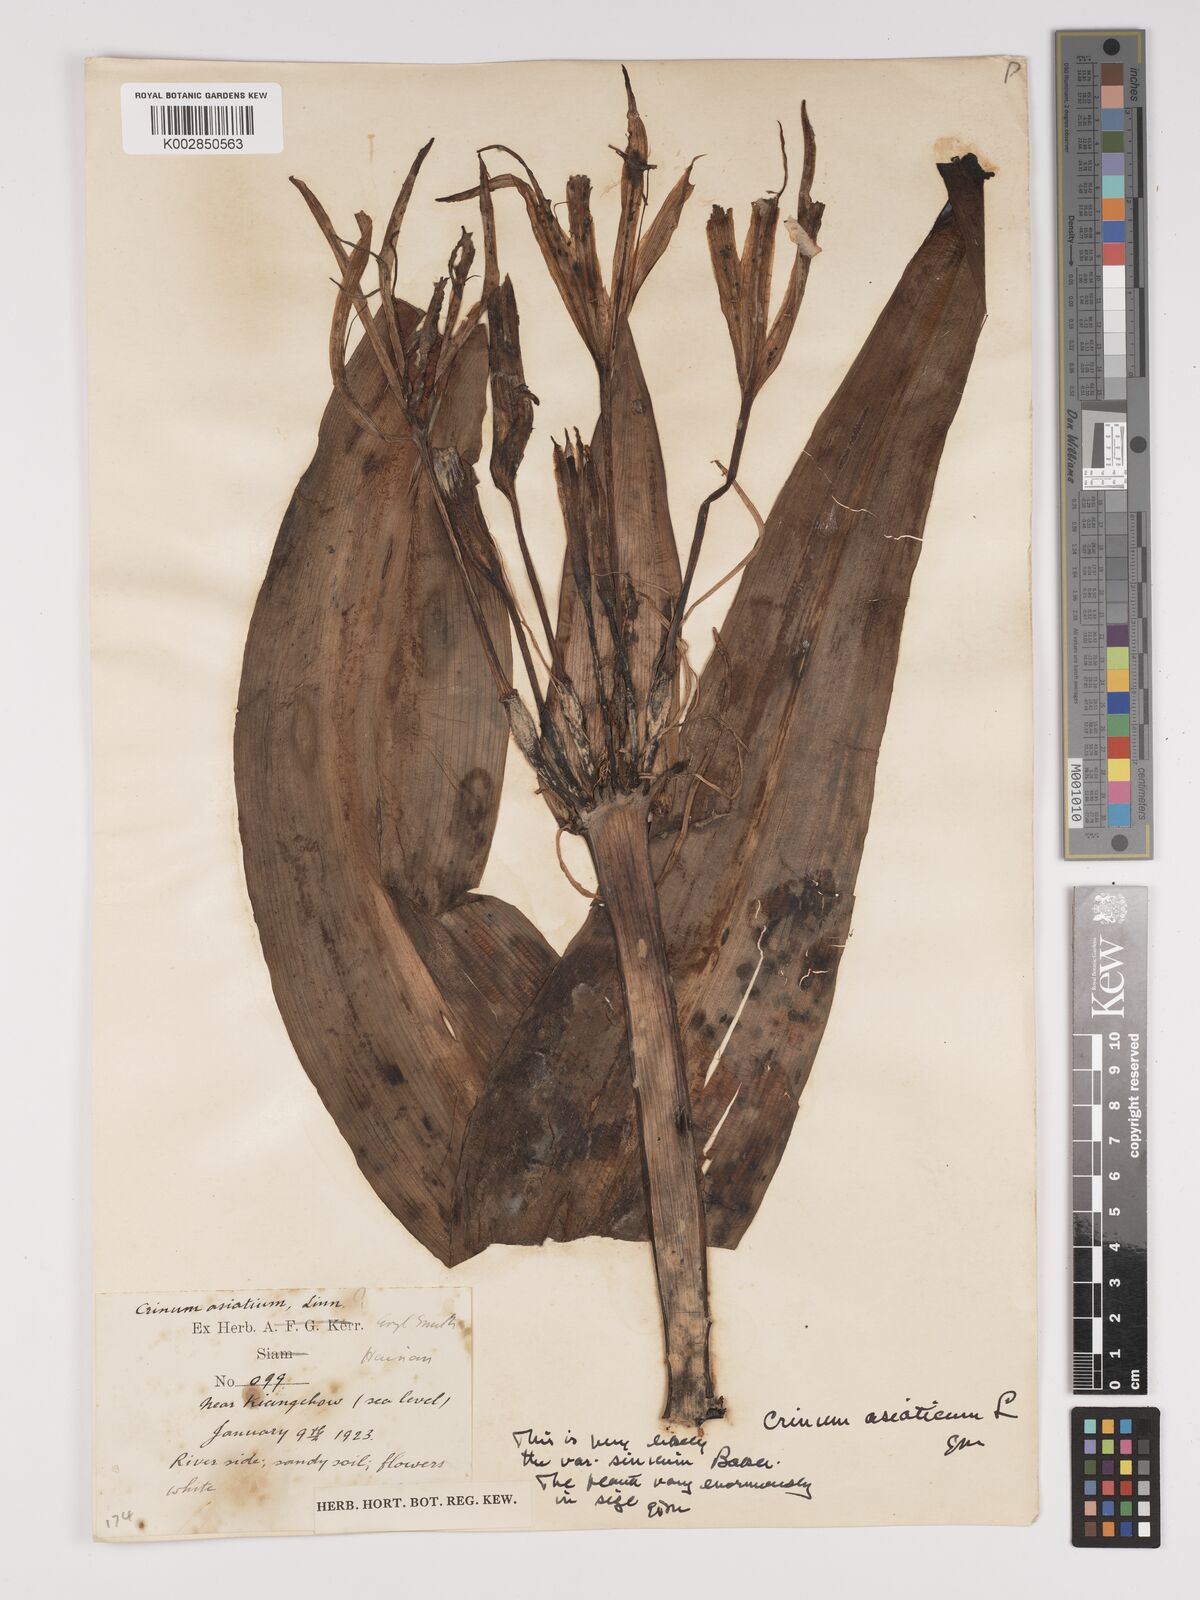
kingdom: Plantae
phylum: Tracheophyta
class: Liliopsida
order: Asparagales
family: Amaryllidaceae
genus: Crinum
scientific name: Crinum asiaticum
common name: Poisonbulb
